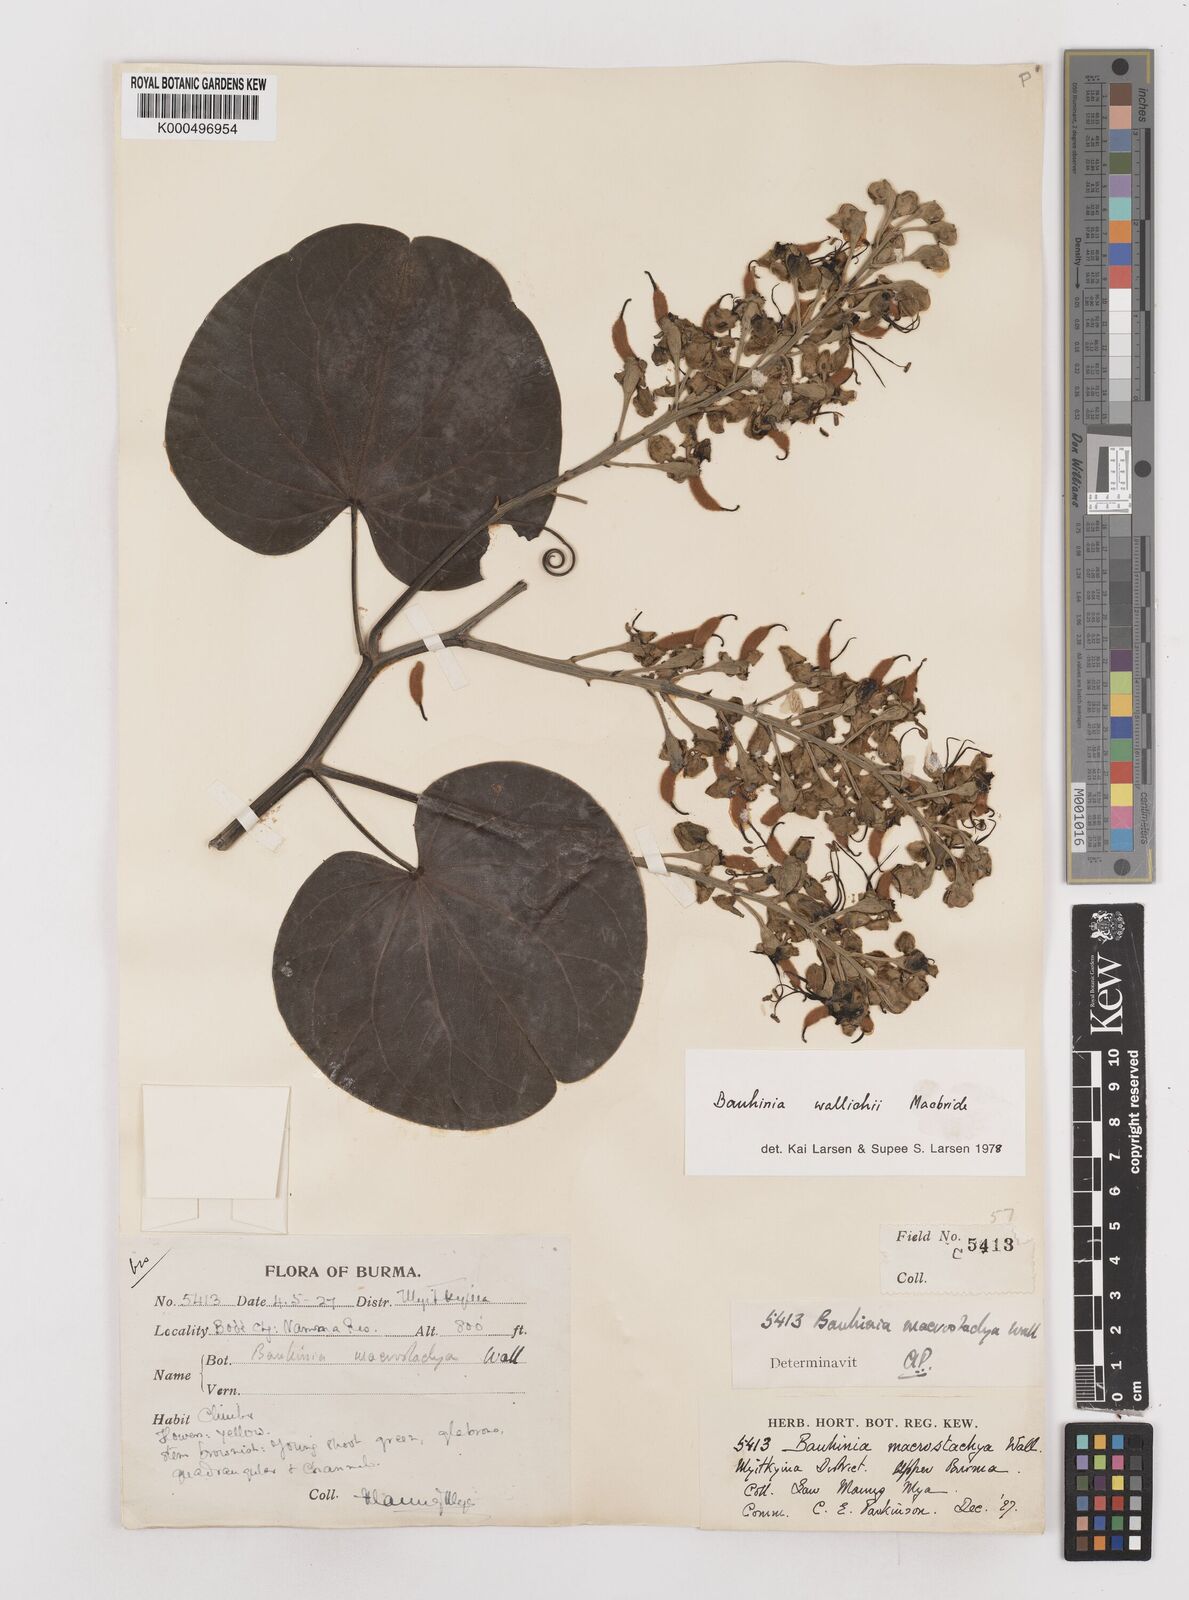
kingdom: Plantae
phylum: Tracheophyta
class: Magnoliopsida
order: Fabales
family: Fabaceae
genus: Phanera
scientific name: Phanera macrostachya
